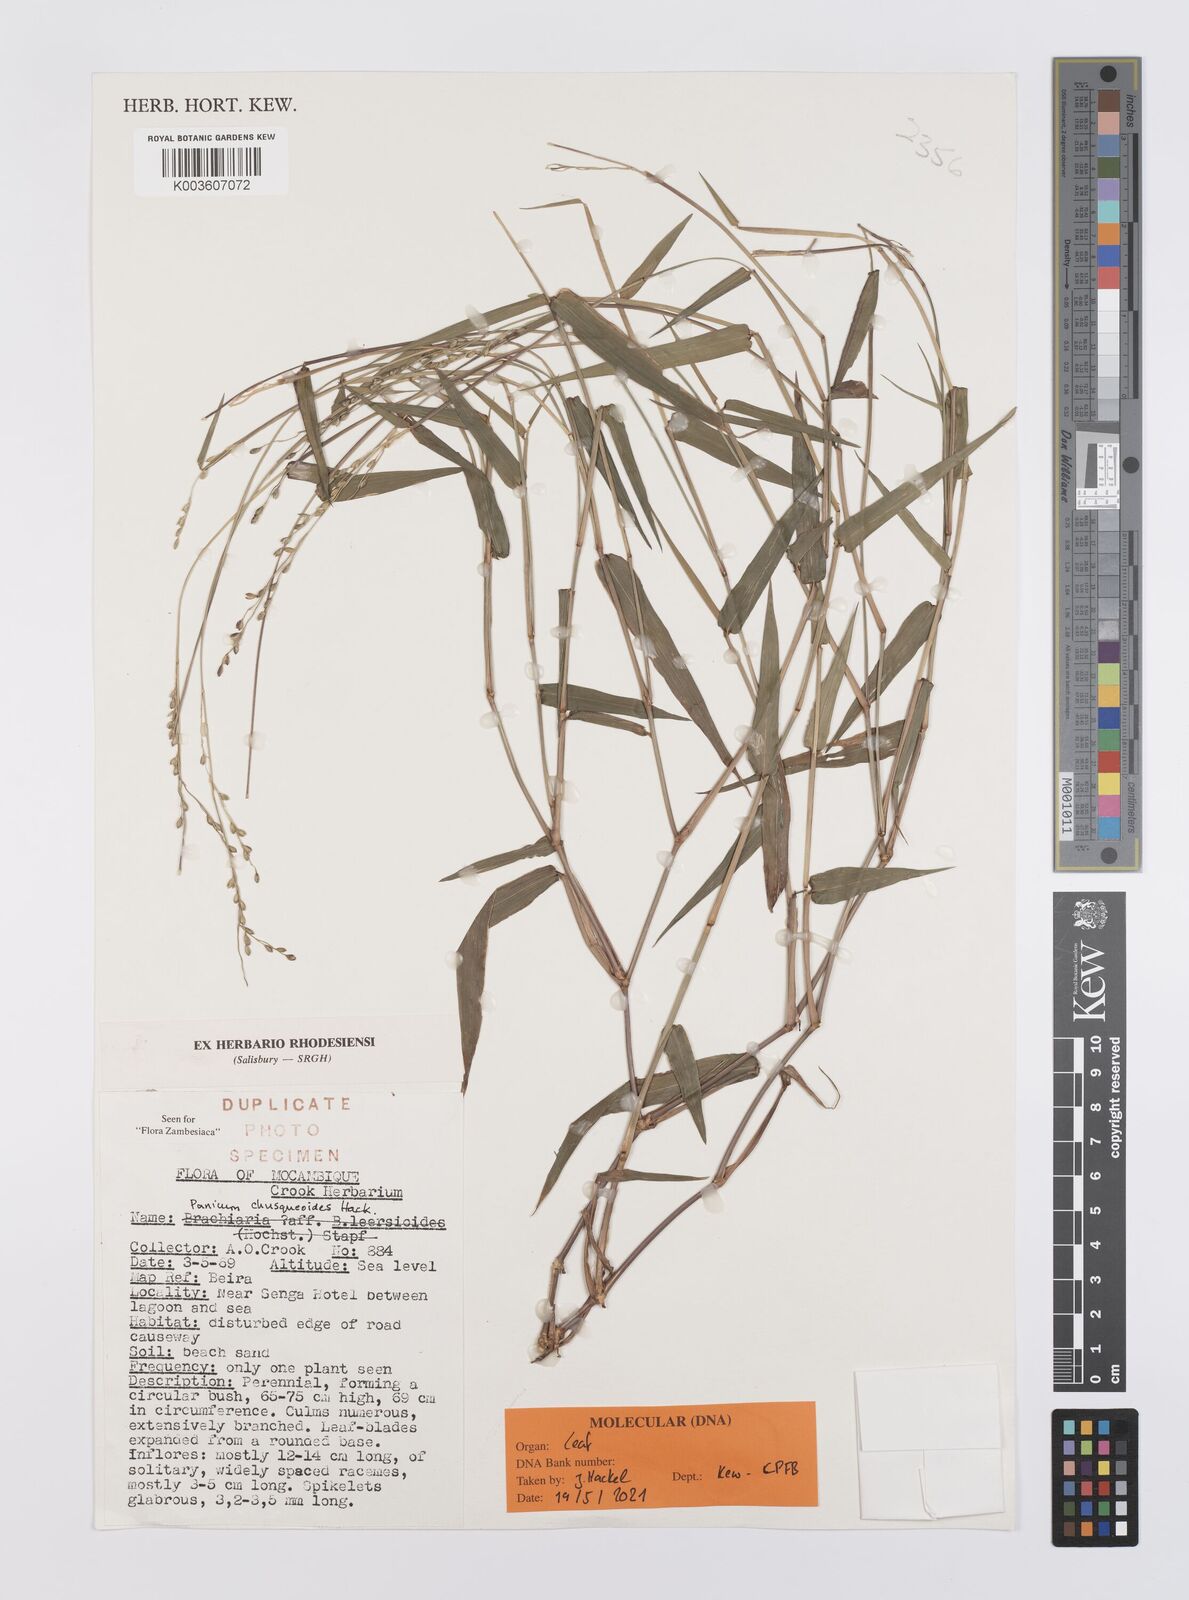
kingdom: Plantae
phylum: Tracheophyta
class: Liliopsida
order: Poales
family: Poaceae
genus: Urochloa
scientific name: Urochloa chusqueoides
